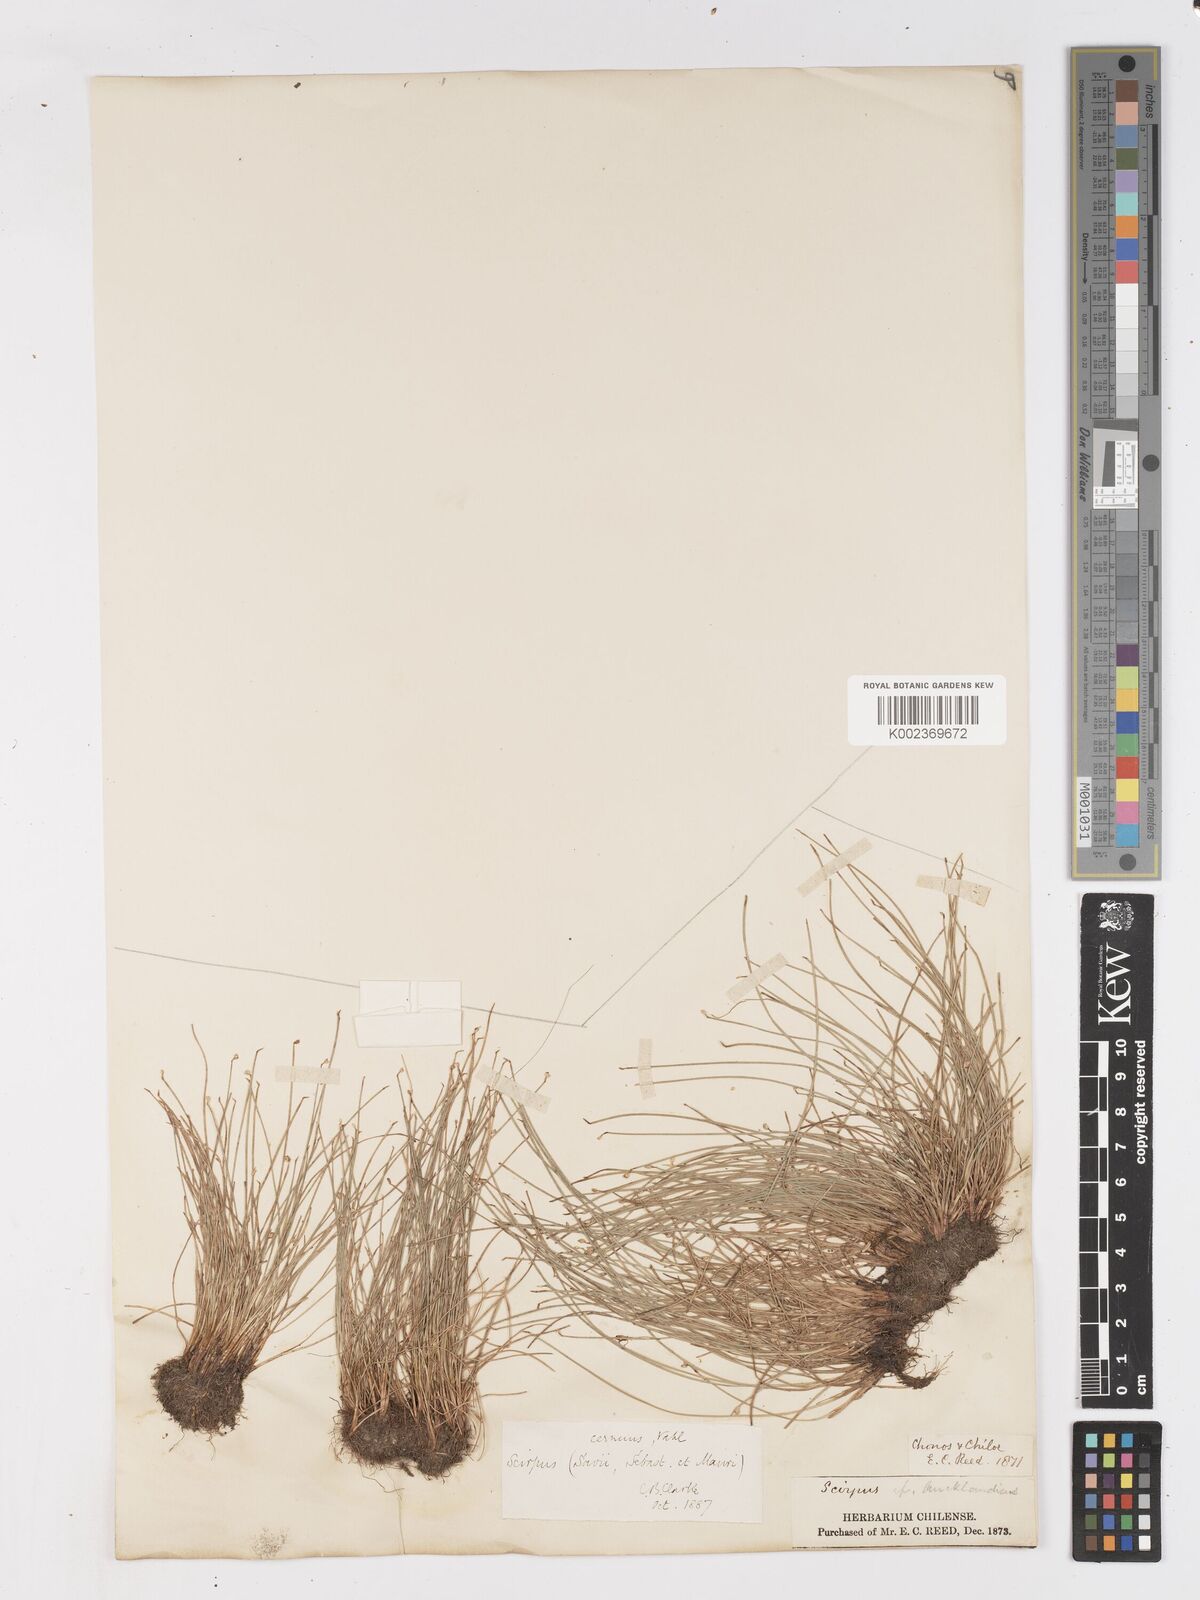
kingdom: Plantae
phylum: Tracheophyta
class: Liliopsida
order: Poales
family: Cyperaceae
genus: Isolepis
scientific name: Isolepis cernua
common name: Slender club-rush
